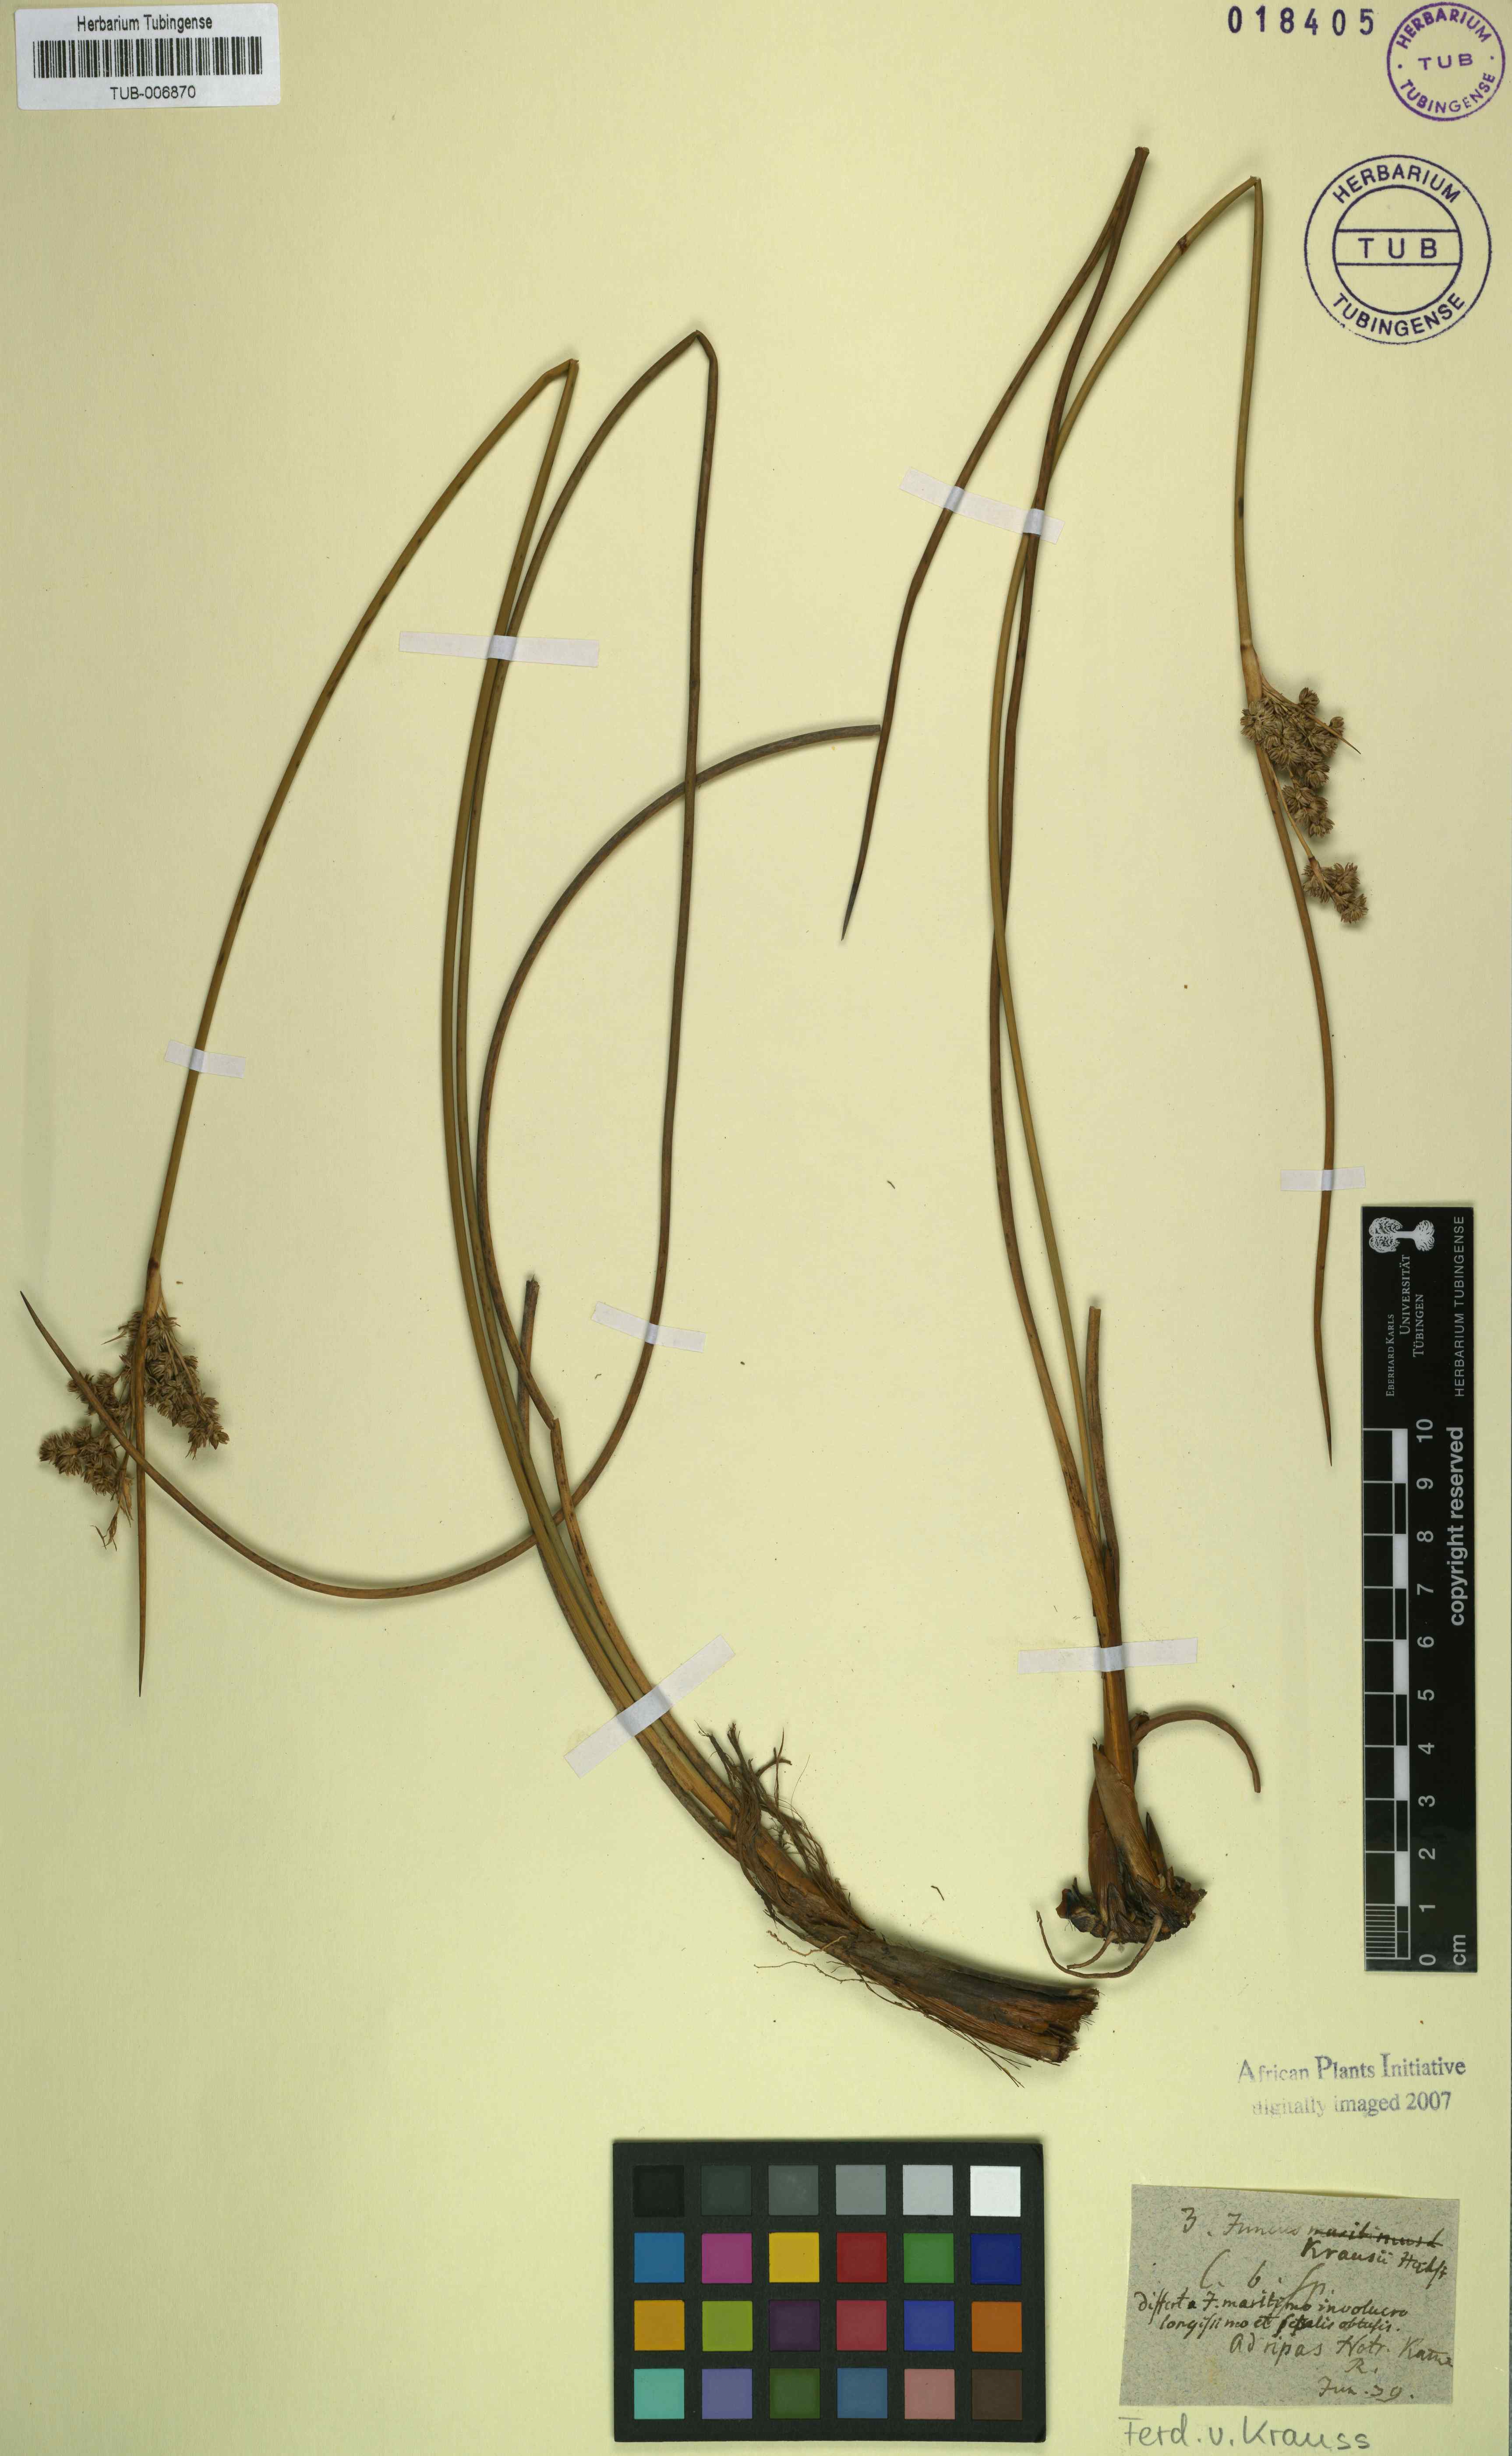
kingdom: Plantae
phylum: Tracheophyta
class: Liliopsida
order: Poales
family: Juncaceae
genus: Juncus
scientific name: Juncus kraussii
